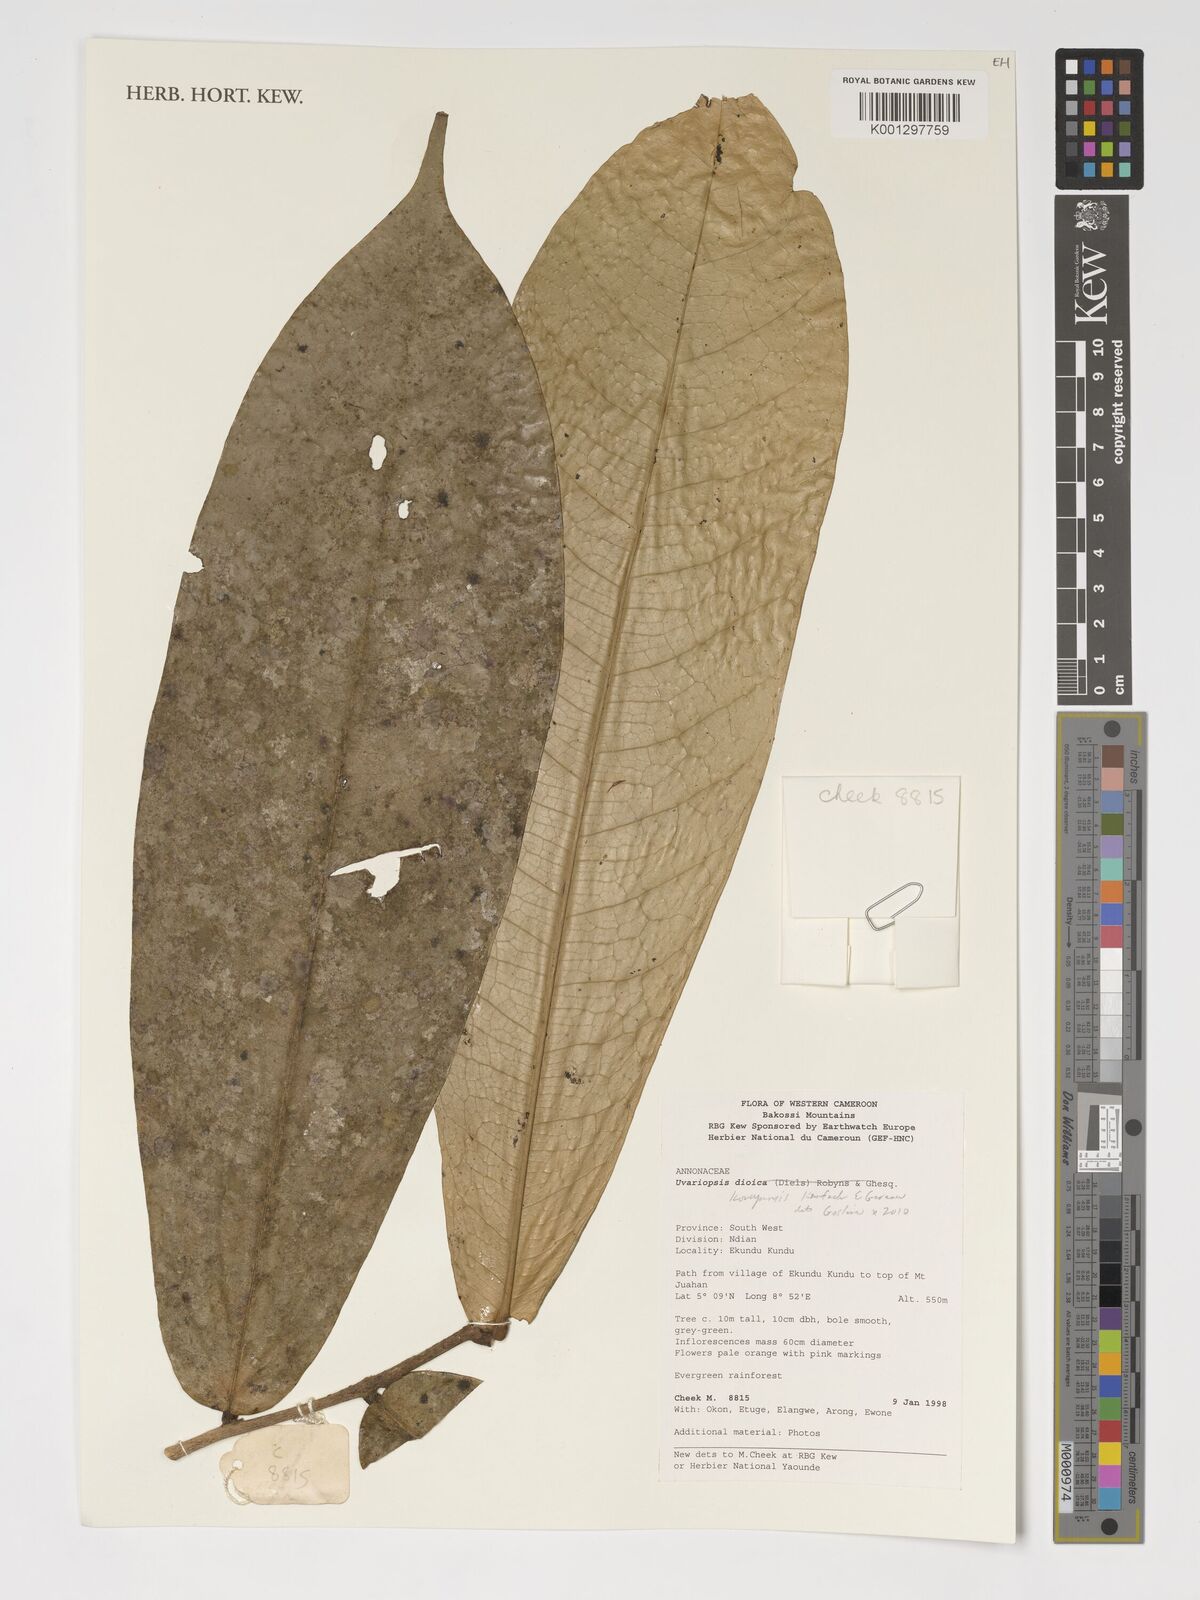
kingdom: Plantae
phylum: Tracheophyta
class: Magnoliopsida
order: Magnoliales
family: Annonaceae
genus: Uvariopsis
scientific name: Uvariopsis korupensis
